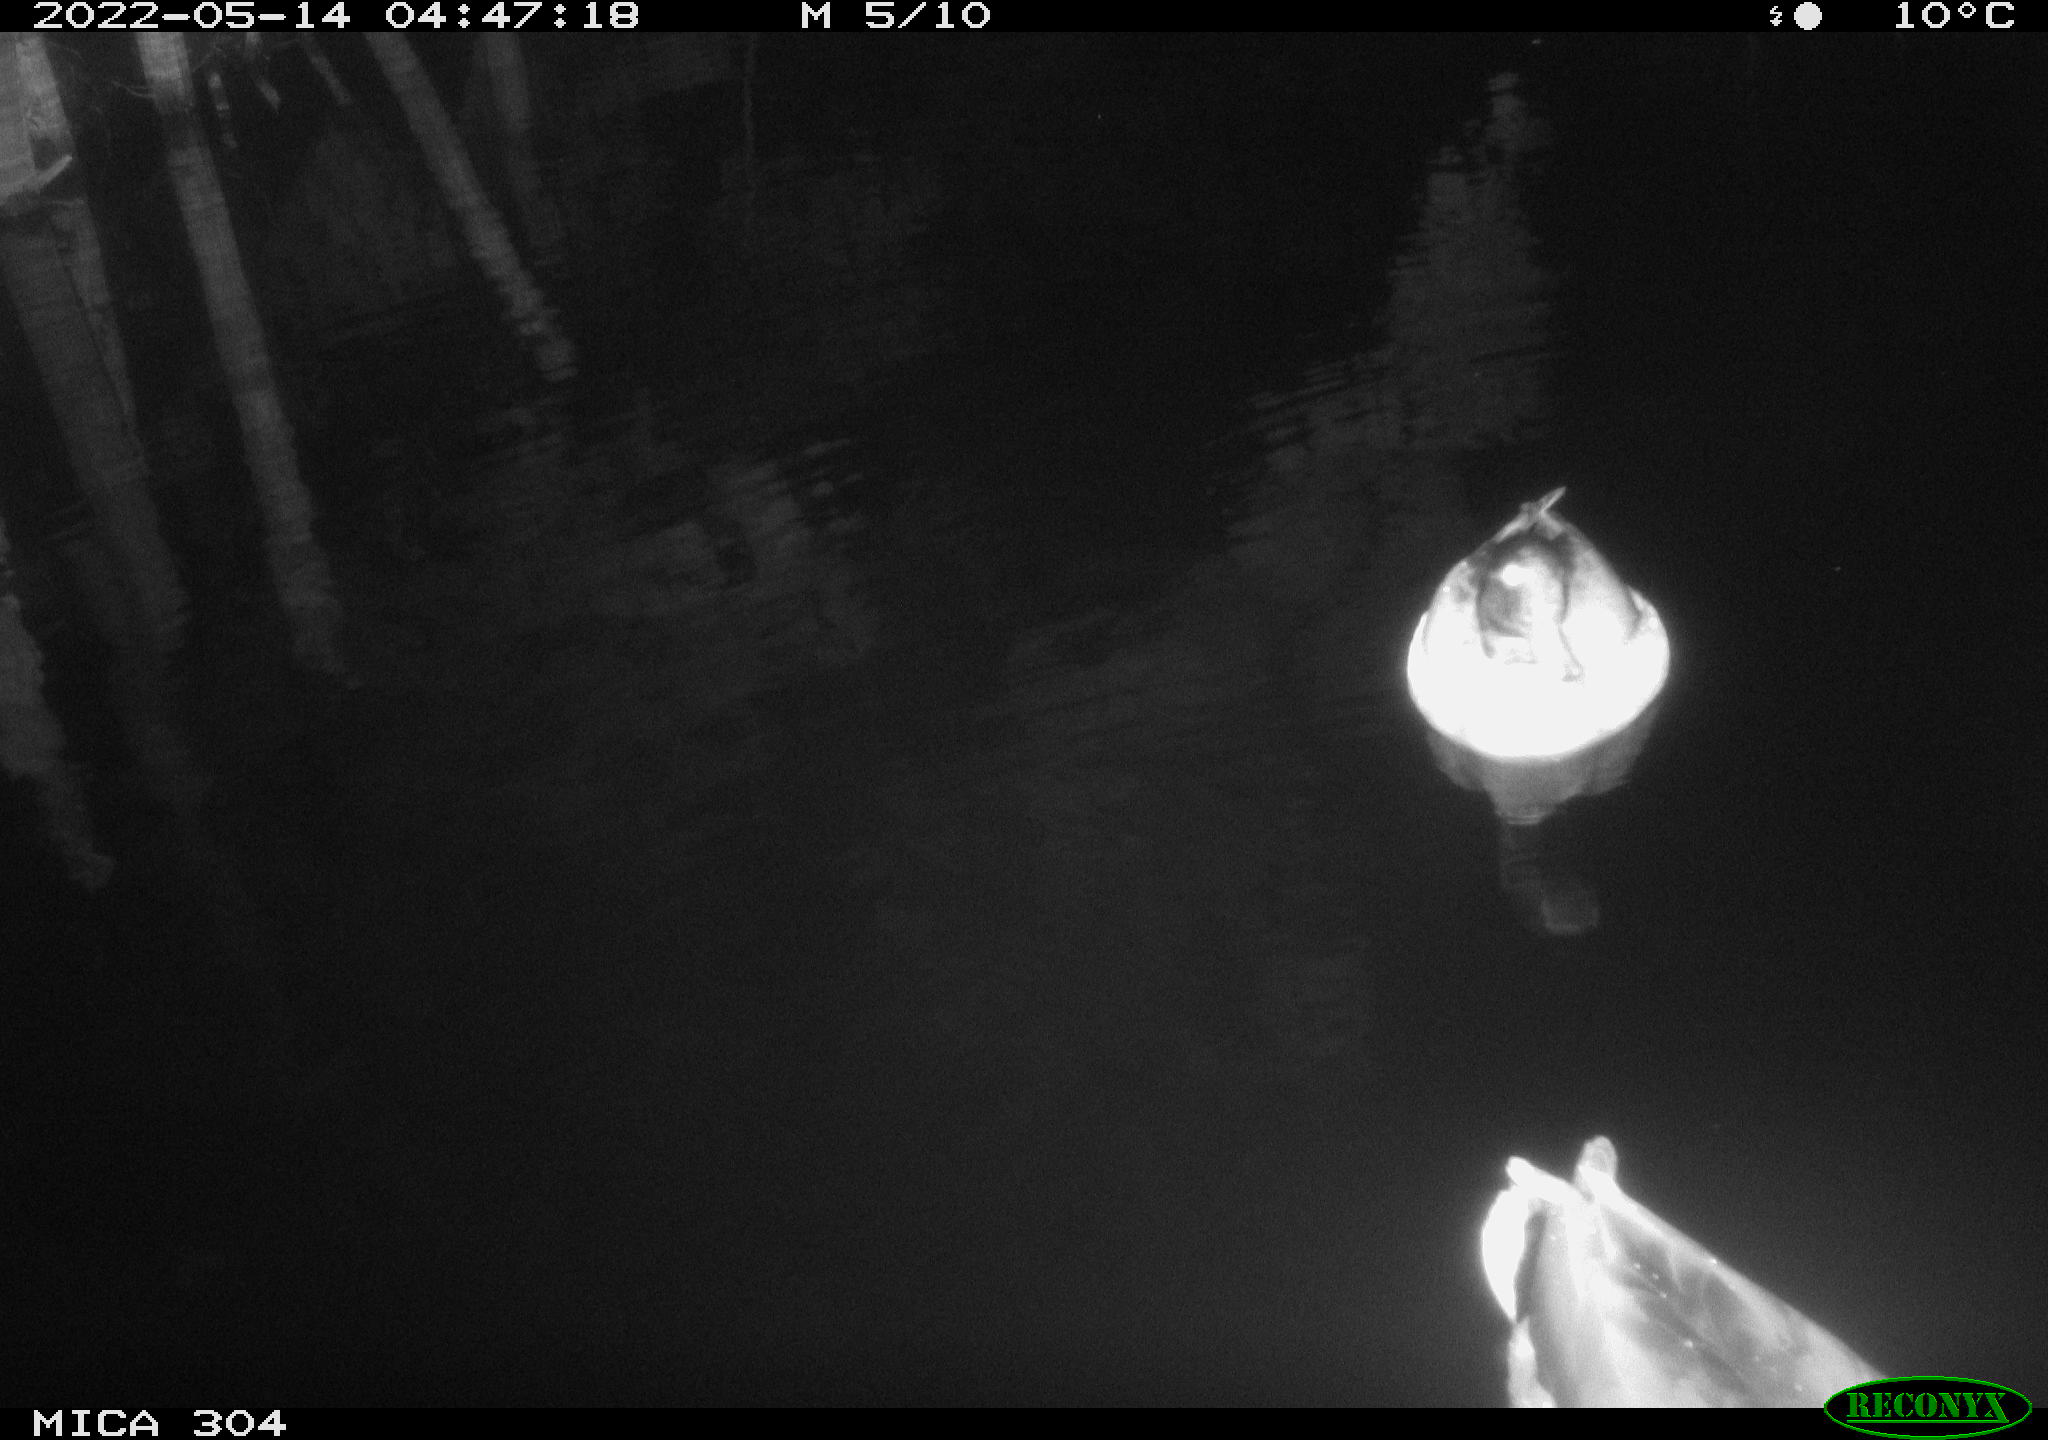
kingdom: Animalia
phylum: Chordata
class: Aves
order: Anseriformes
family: Anatidae
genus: Anas
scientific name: Anas platyrhynchos
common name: Mallard
